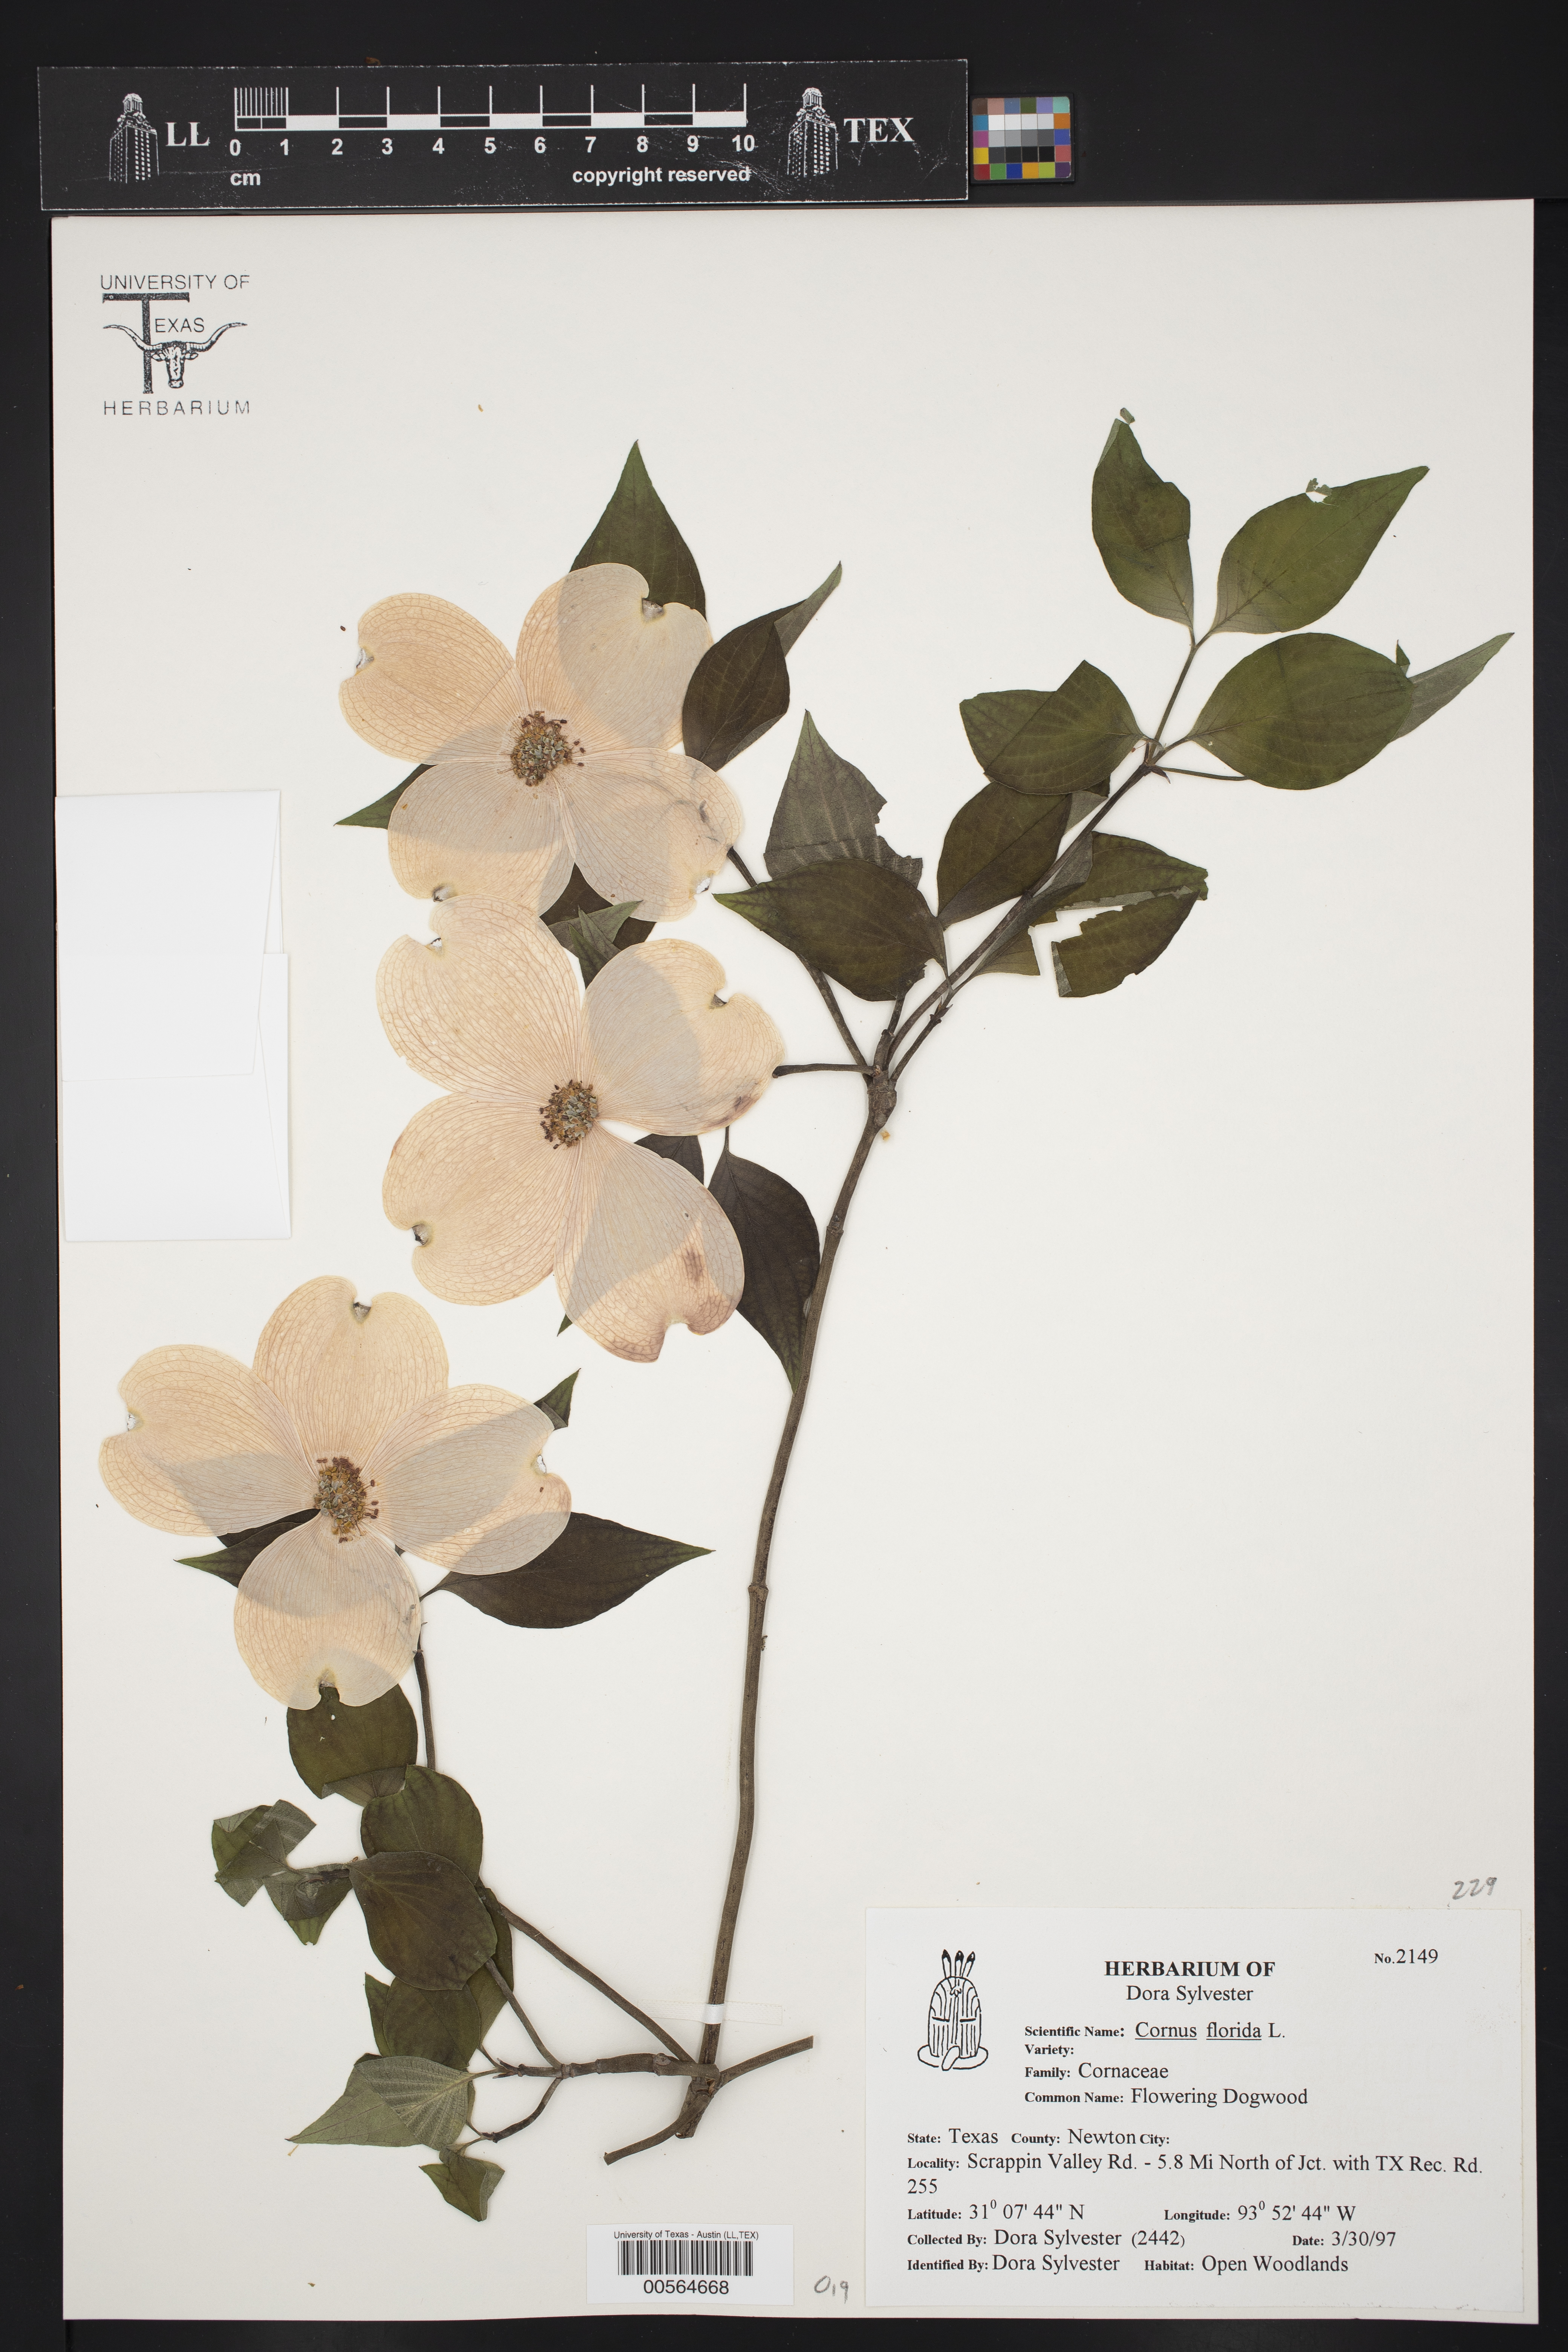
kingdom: Plantae
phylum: Tracheophyta
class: Magnoliopsida
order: Cornales
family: Cornaceae
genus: Cornus
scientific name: Cornus florida
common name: Flowering dogwood
